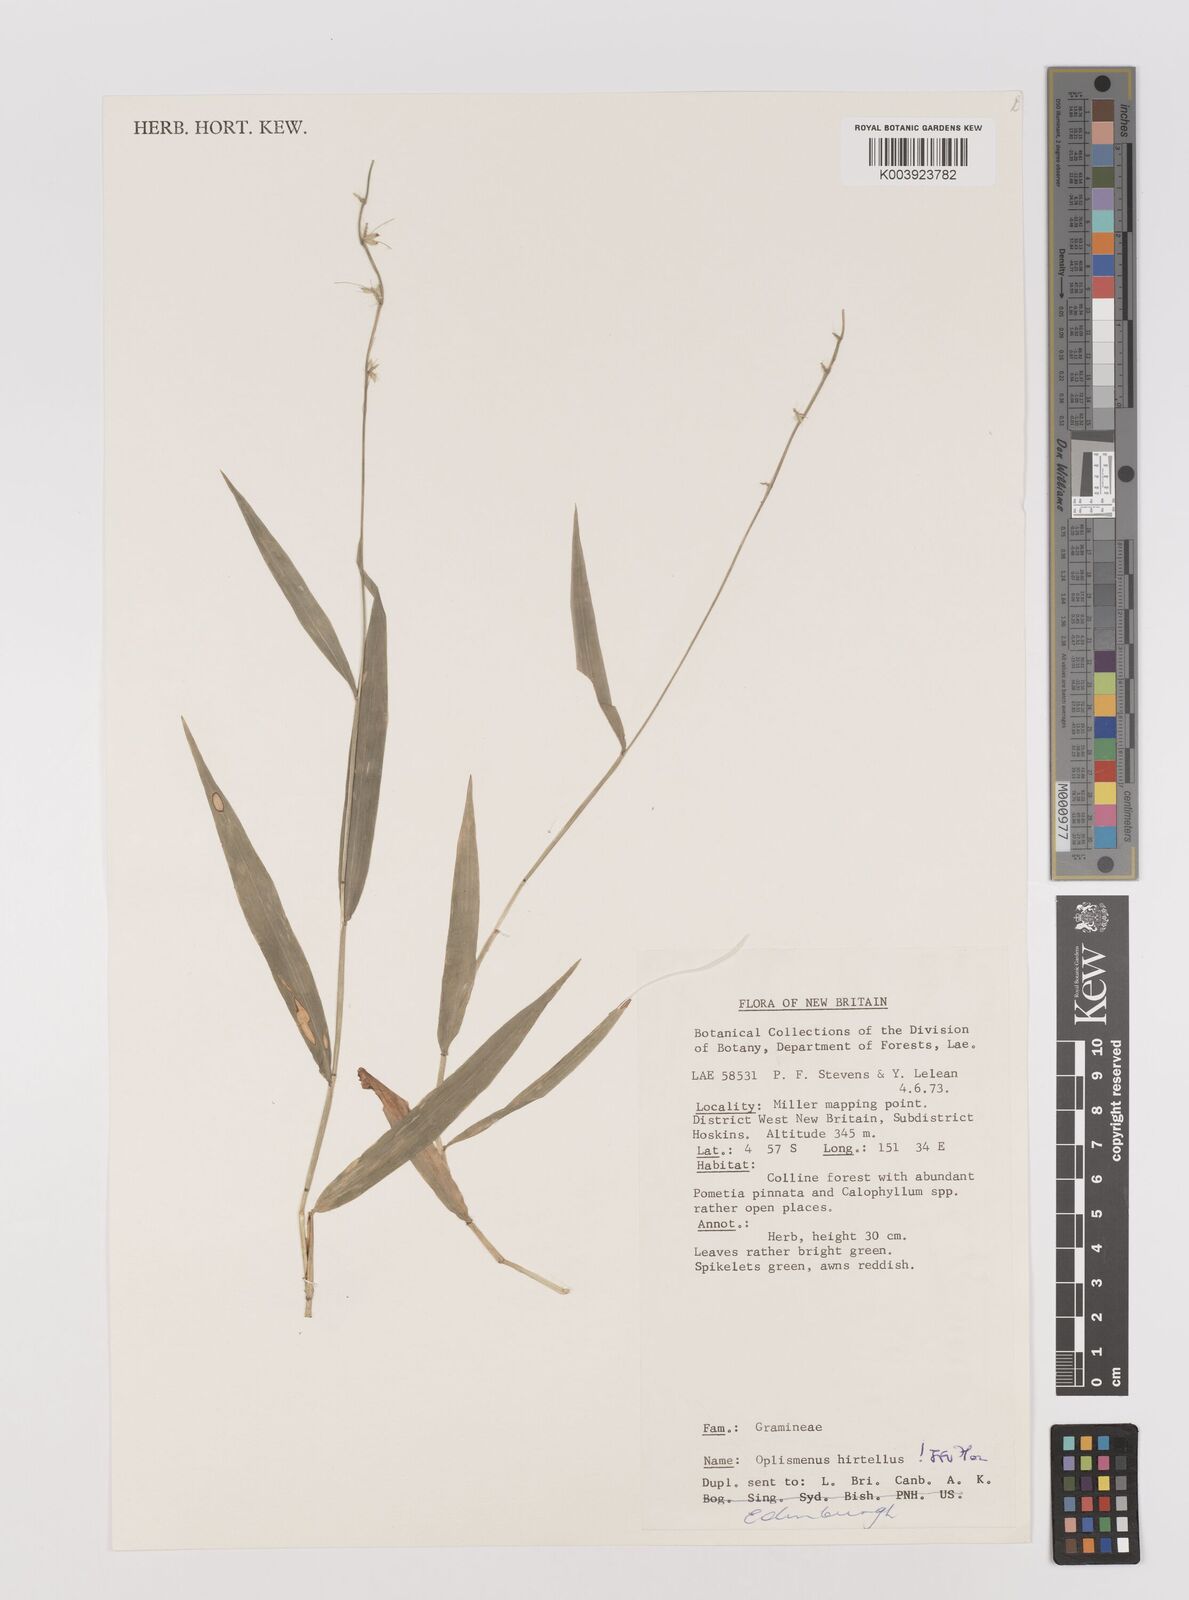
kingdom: Plantae
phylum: Tracheophyta
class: Liliopsida
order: Poales
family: Poaceae
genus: Oplismenus
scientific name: Oplismenus hirtellus
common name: Basketgrass
